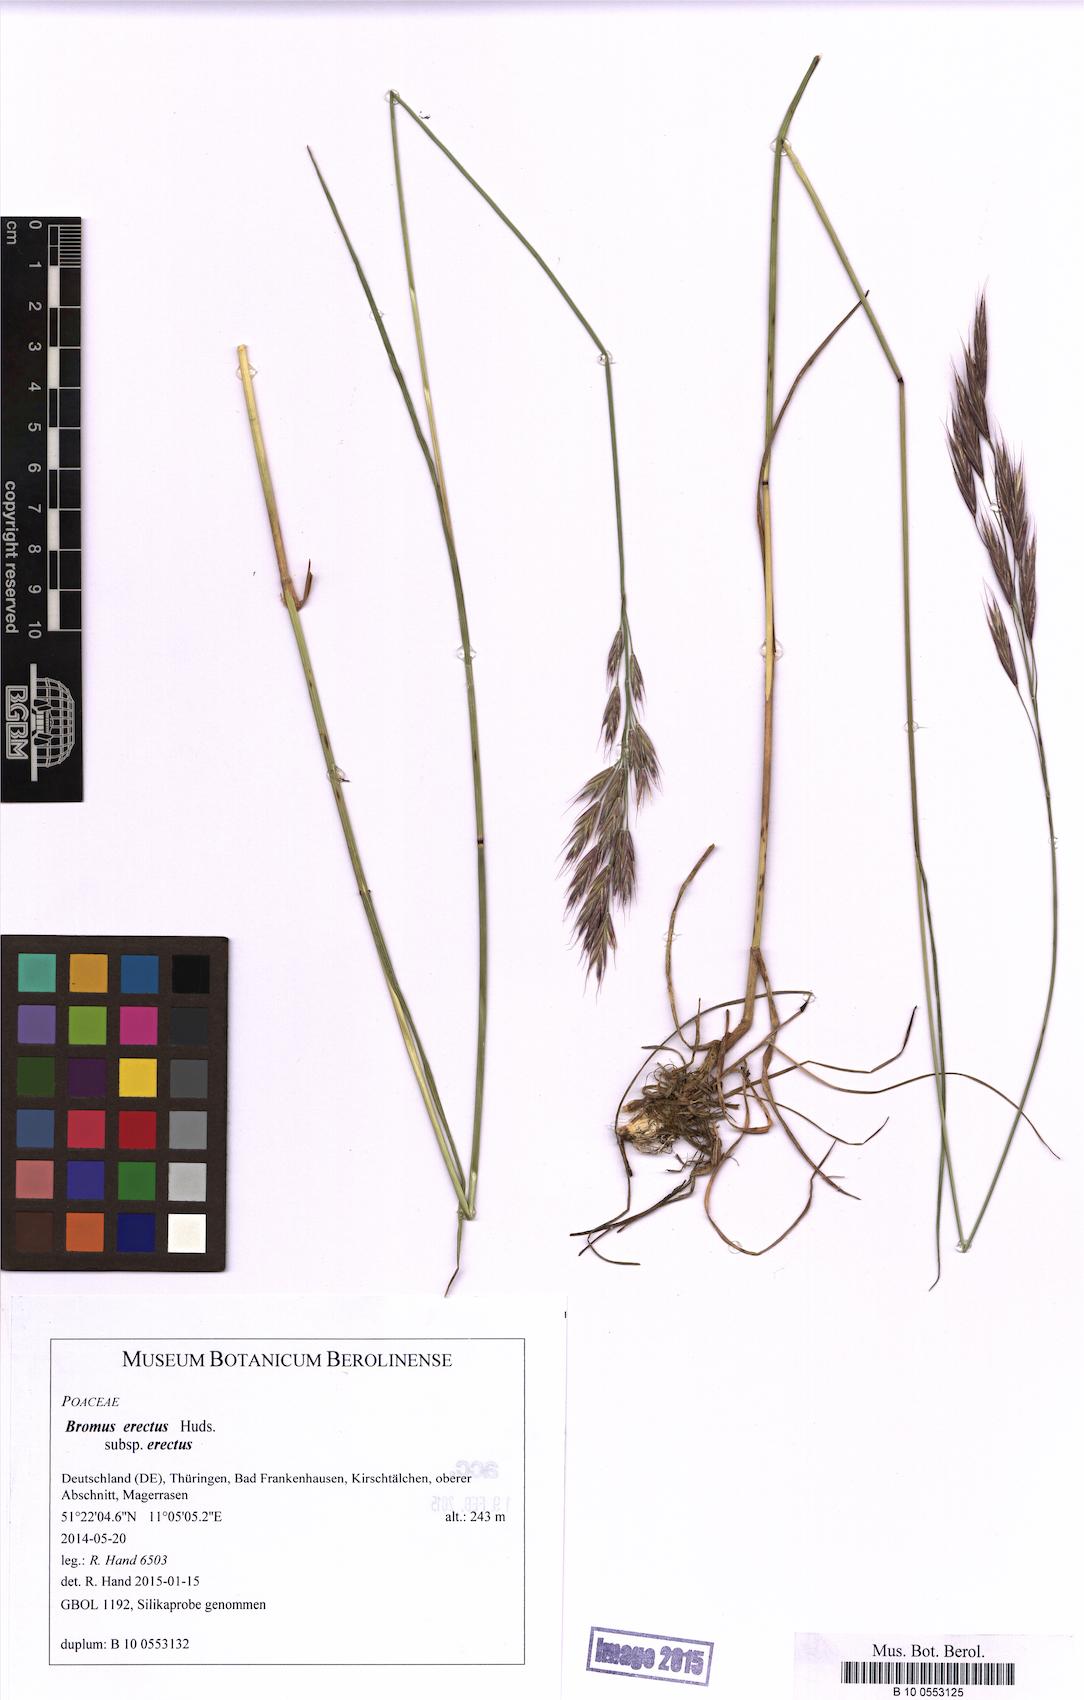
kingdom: Plantae
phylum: Tracheophyta
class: Liliopsida
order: Poales
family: Poaceae
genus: Bromus
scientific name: Bromus erectus
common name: Erect brome
